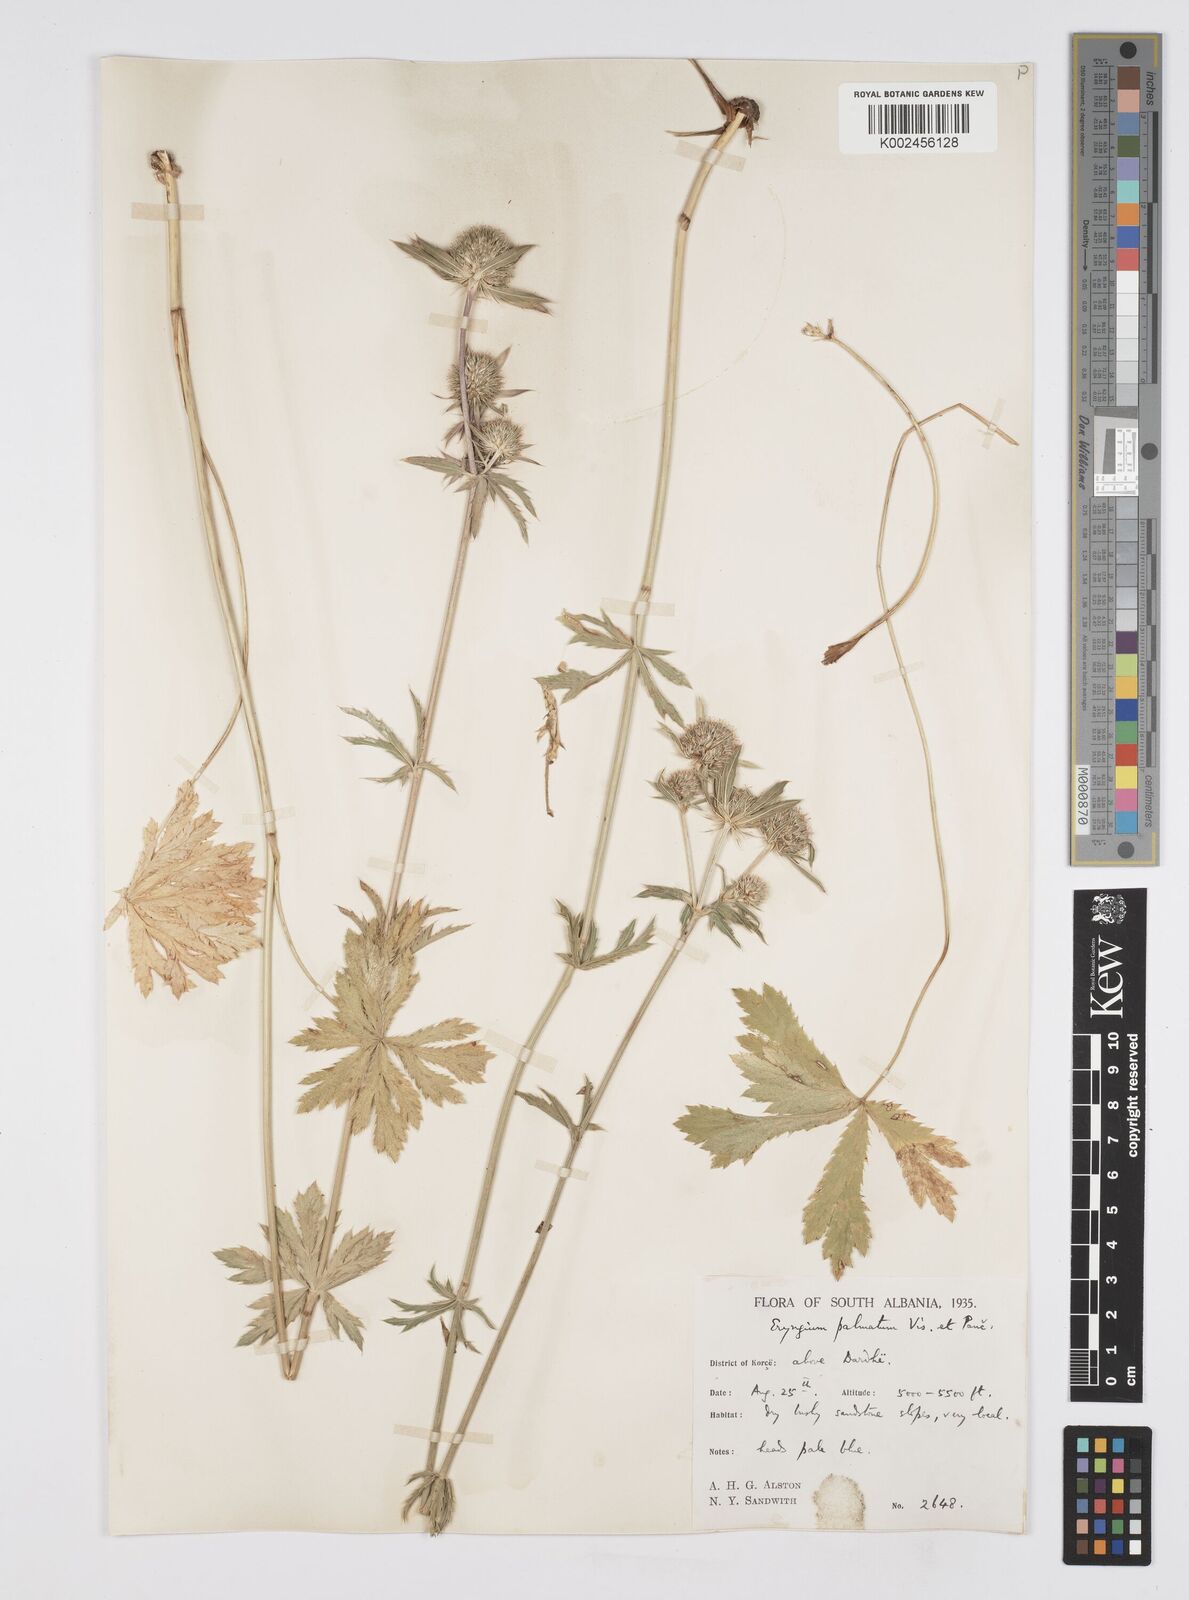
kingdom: Plantae
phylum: Tracheophyta
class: Magnoliopsida
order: Apiales
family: Apiaceae
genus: Eryngium
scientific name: Eryngium palmatum
